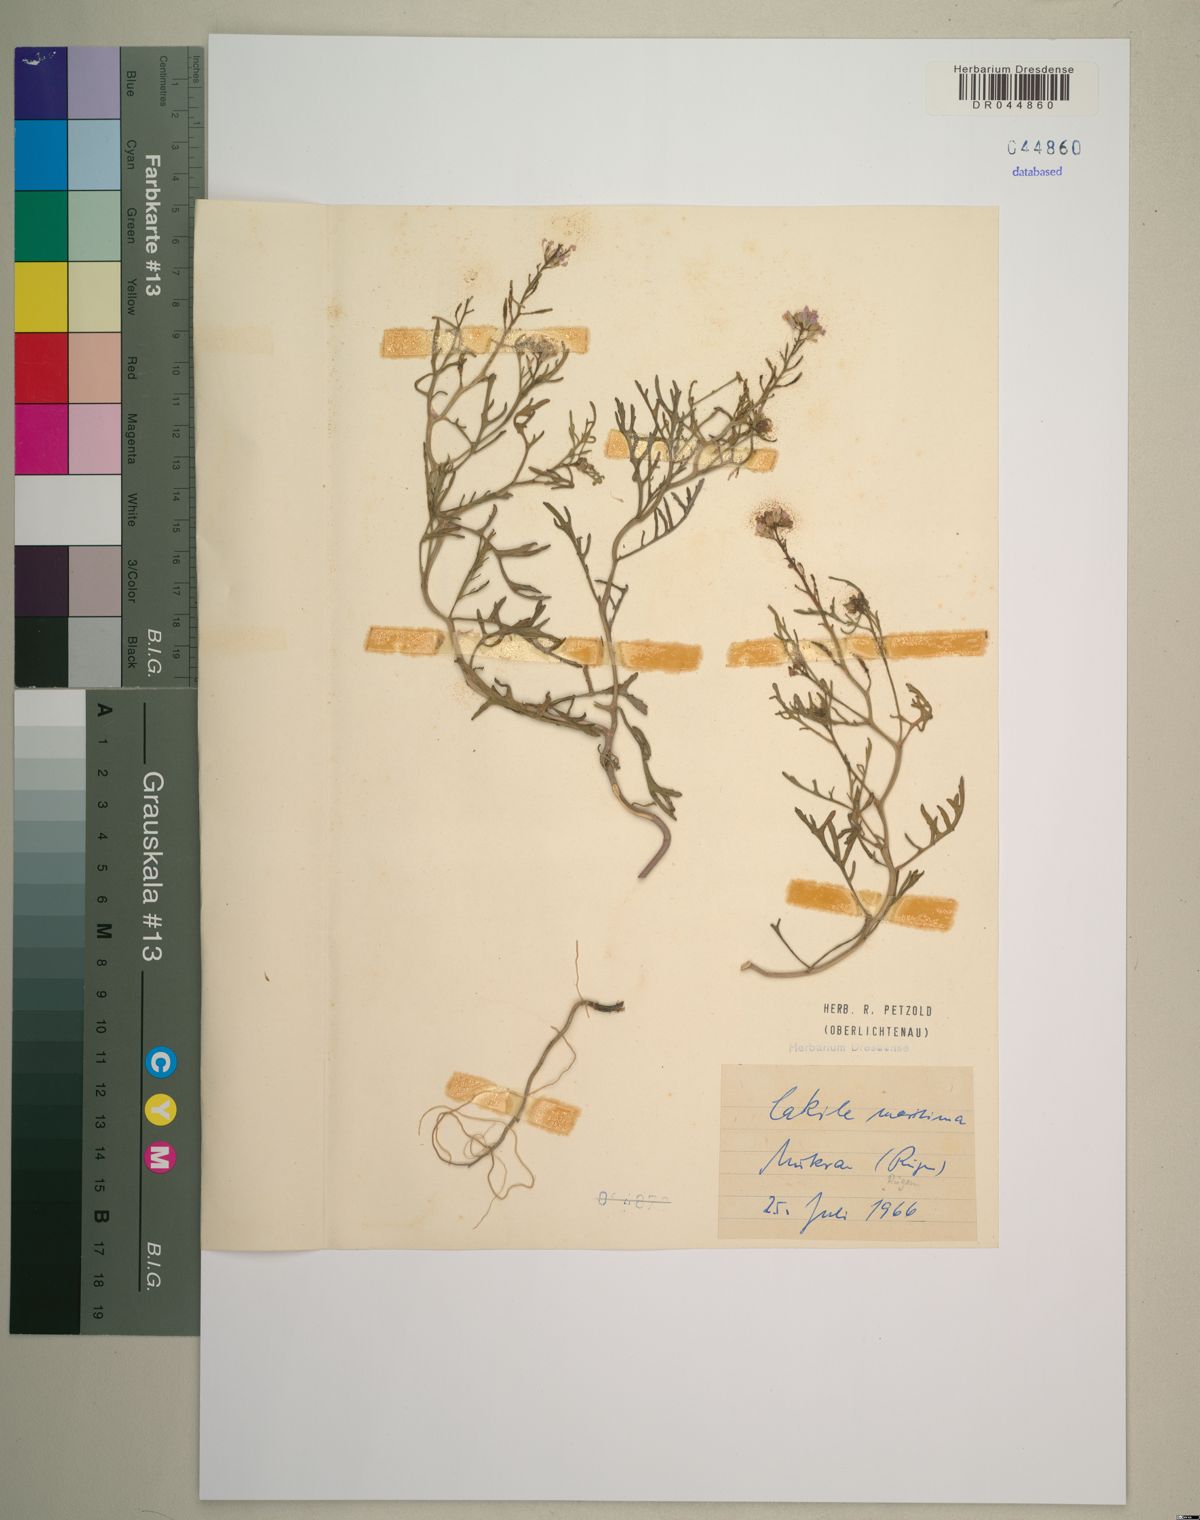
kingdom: Plantae
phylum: Tracheophyta
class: Magnoliopsida
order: Brassicales
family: Brassicaceae
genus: Cakile
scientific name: Cakile maritima
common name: Sea rocket
